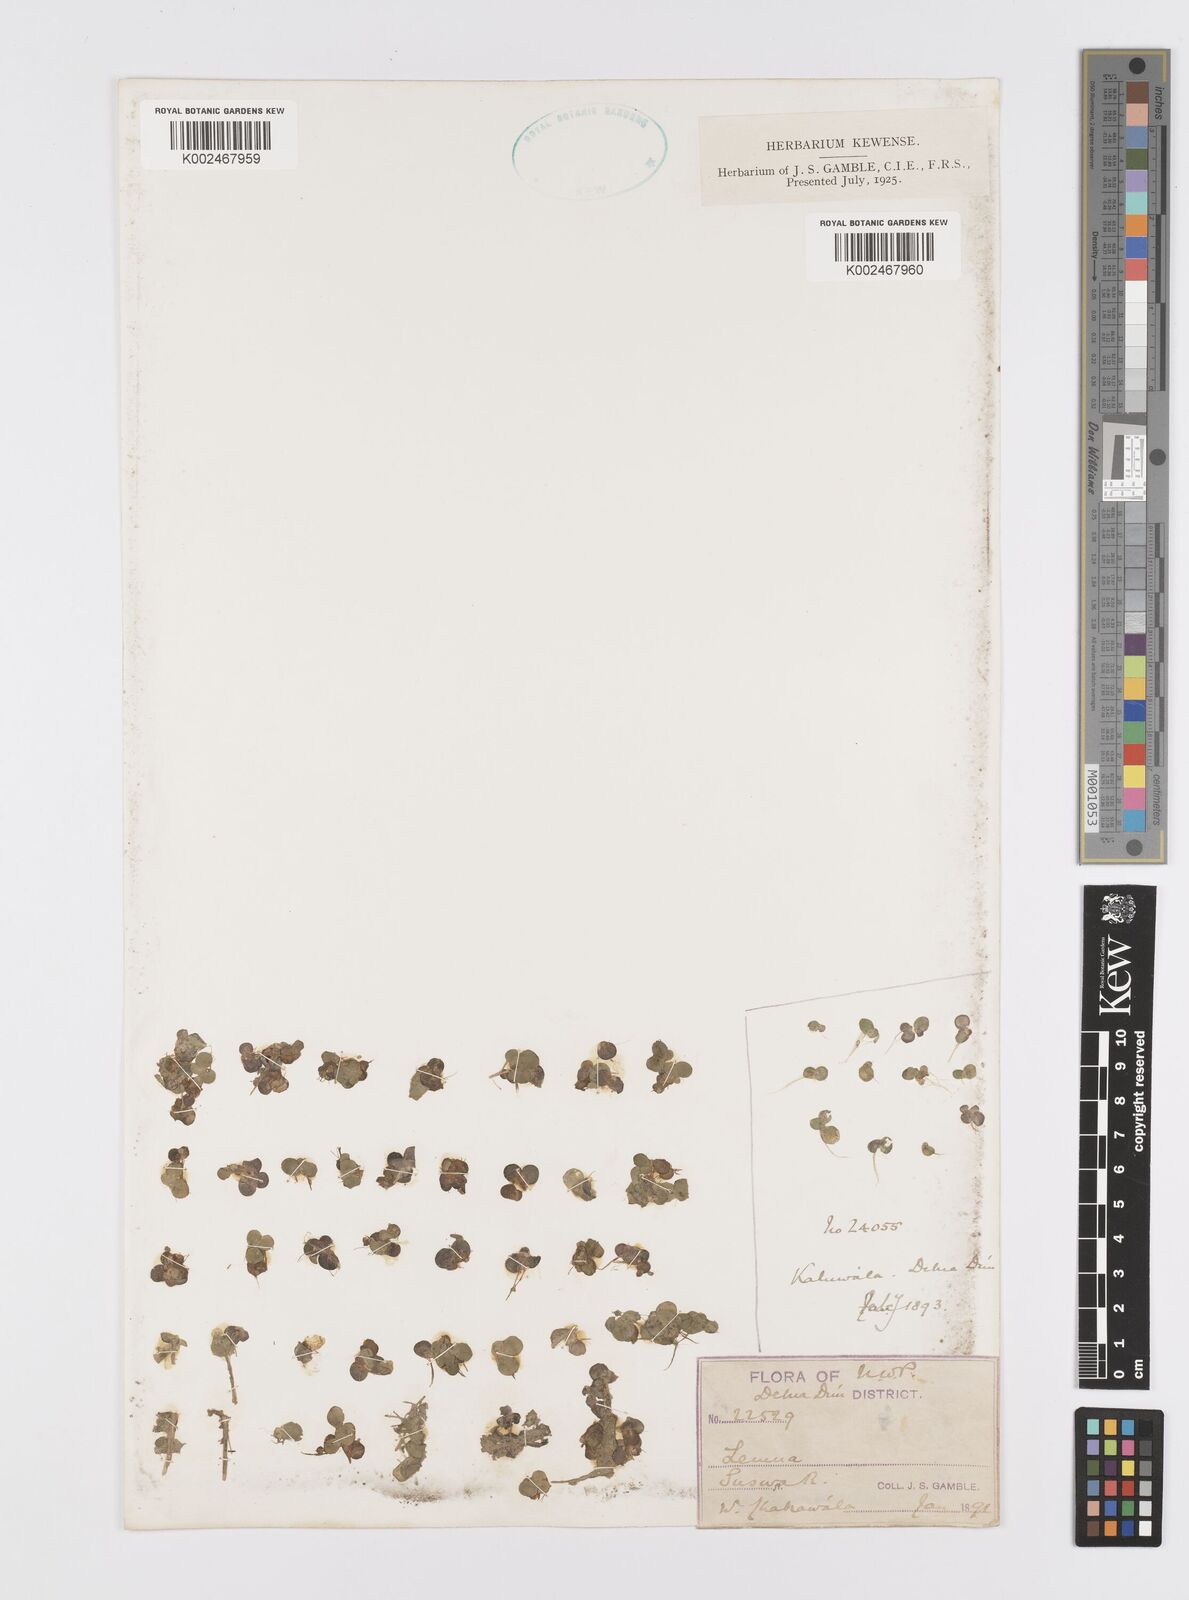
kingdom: Plantae
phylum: Tracheophyta
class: Liliopsida
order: Alismatales
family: Araceae
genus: Lemna
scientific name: Lemna
